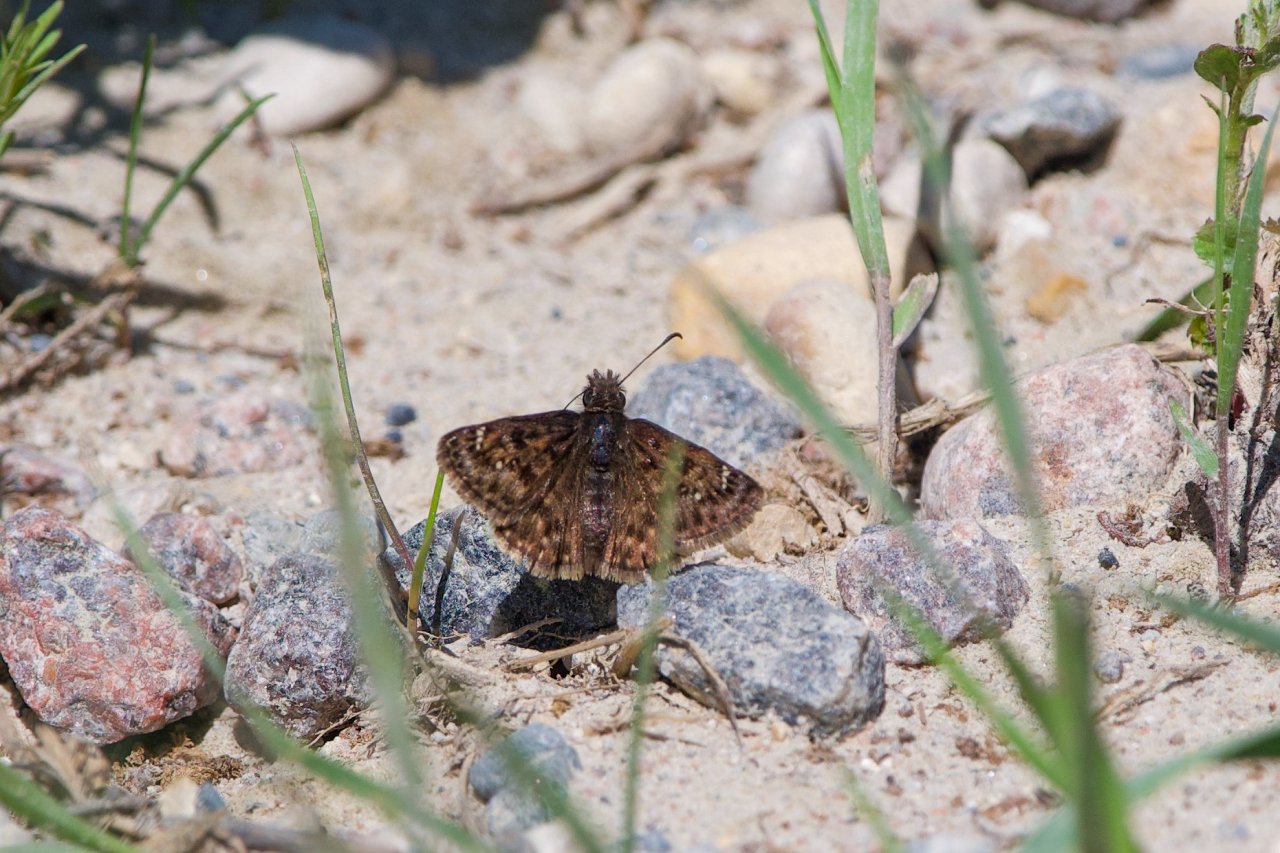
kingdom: Animalia
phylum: Arthropoda
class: Insecta
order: Lepidoptera
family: Hesperiidae
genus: Erynnis
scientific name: Erynnis martialis
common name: Mottled Duskywing
